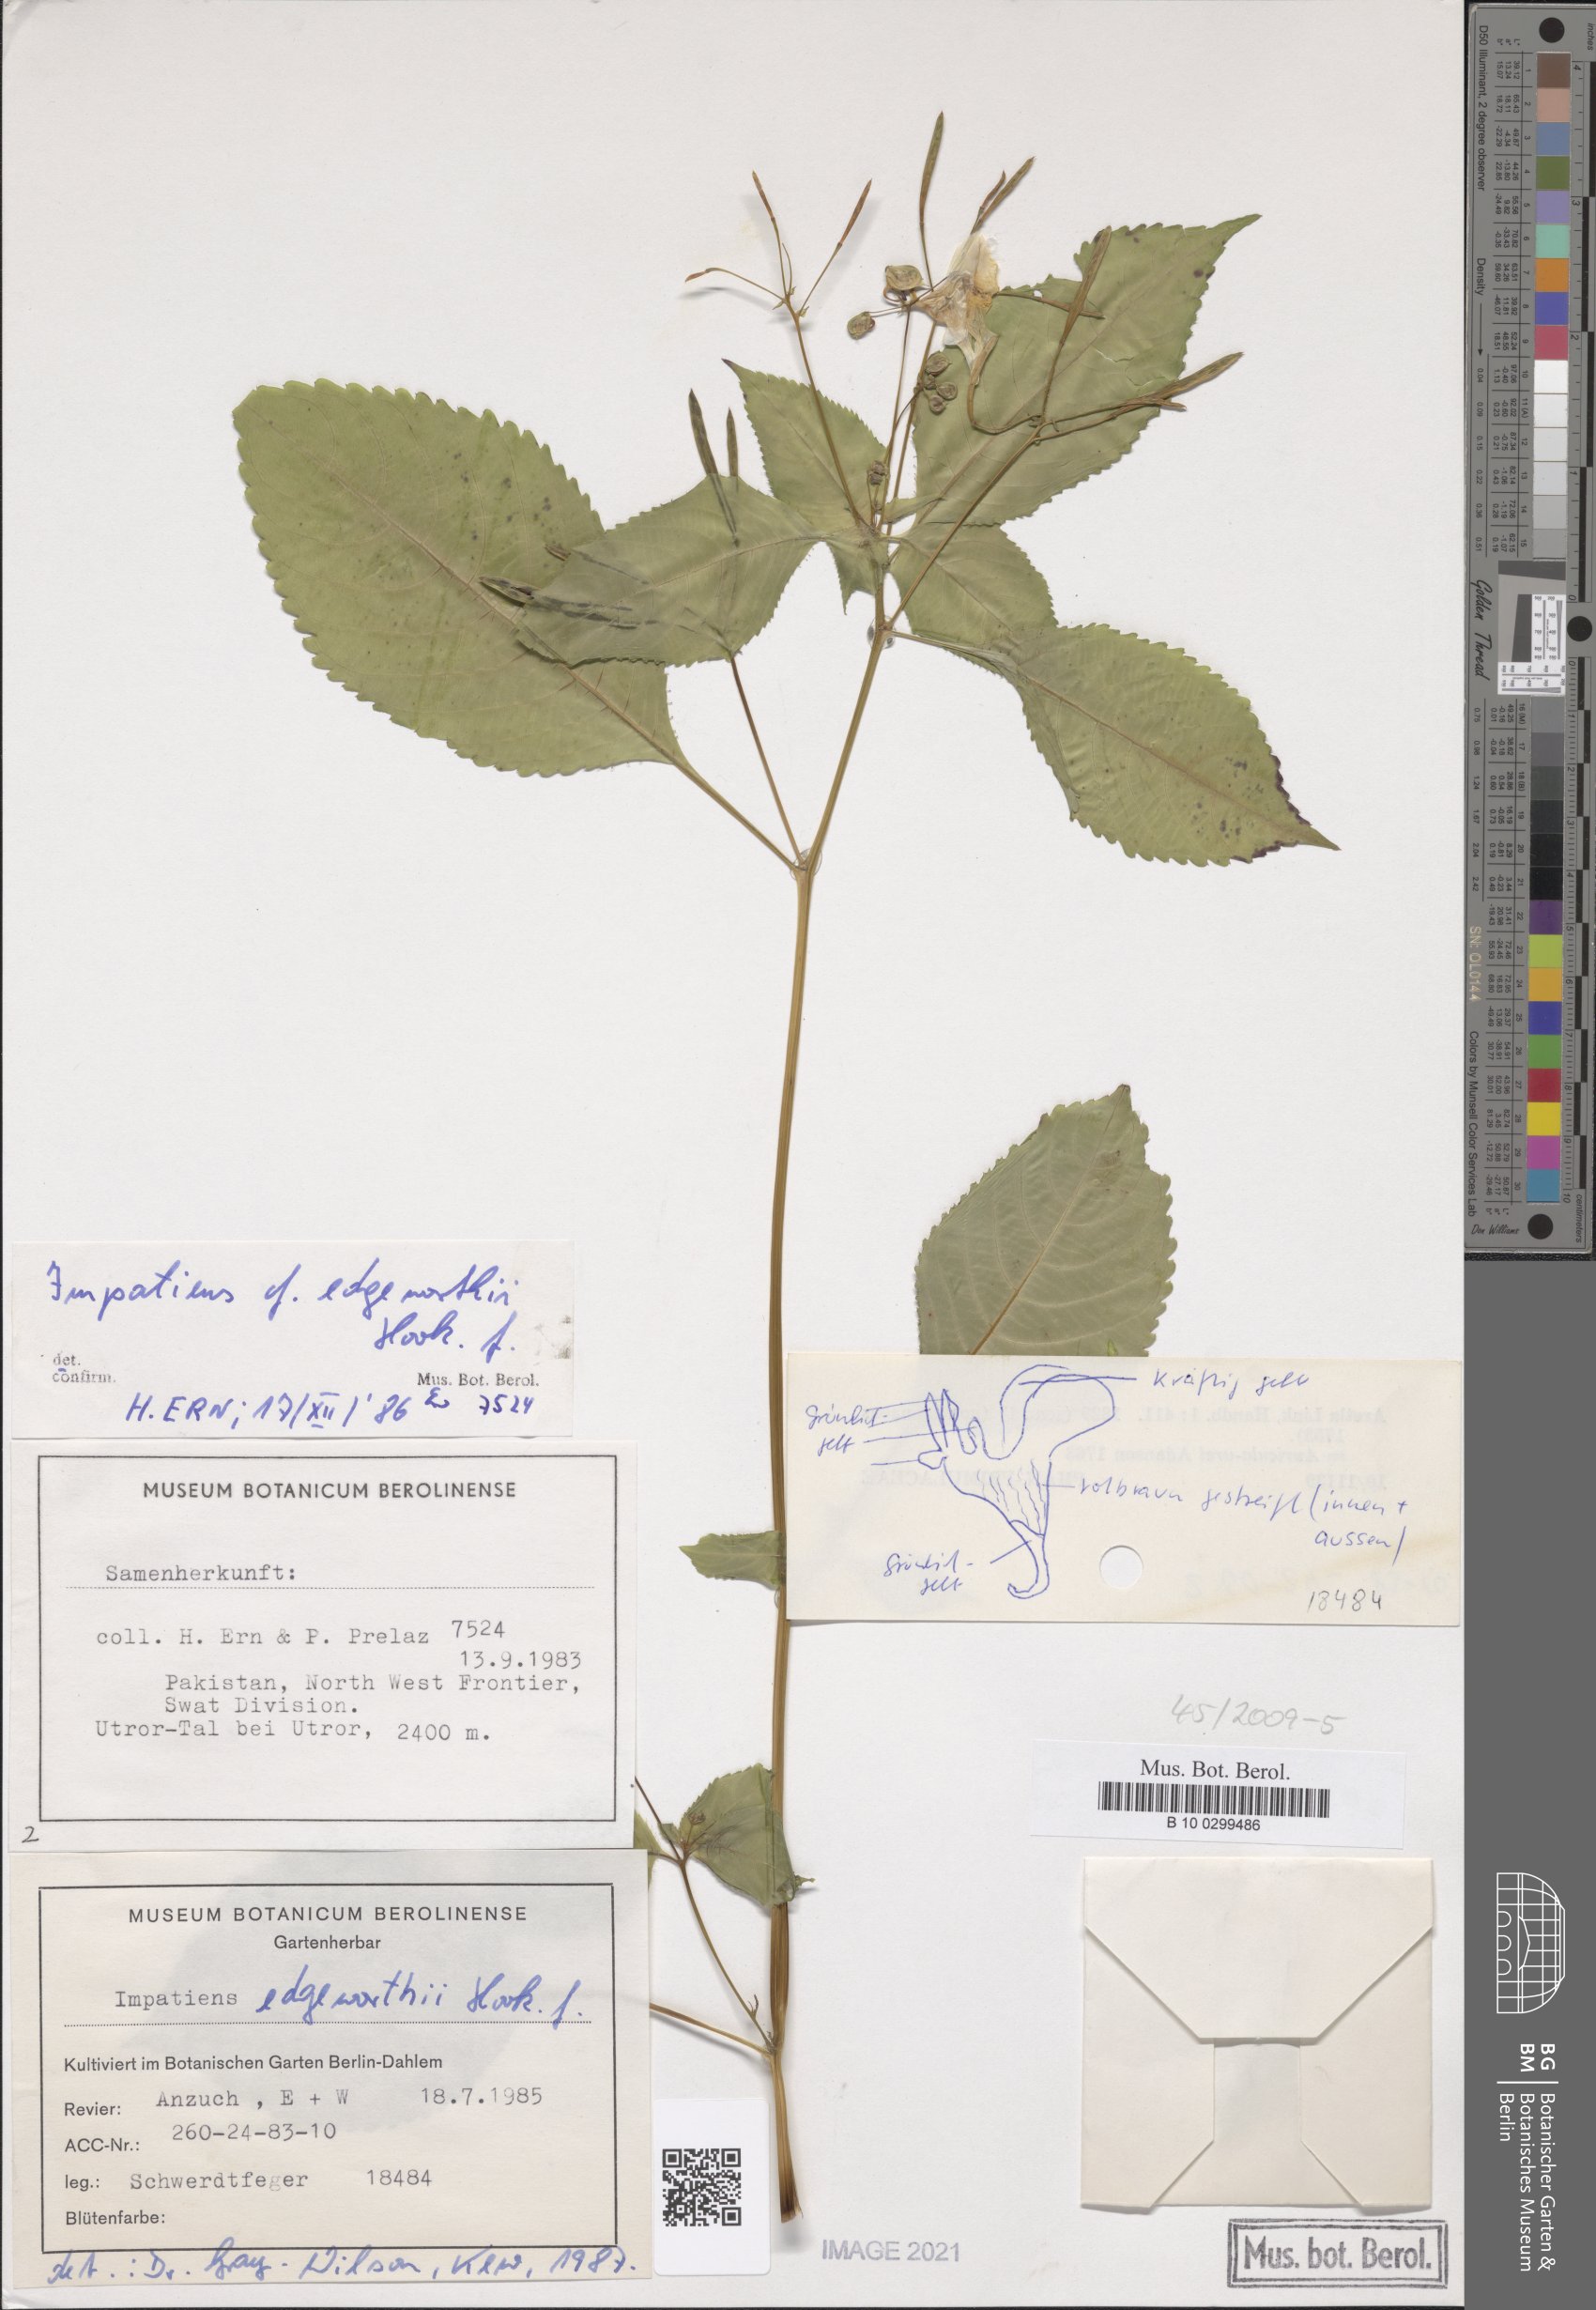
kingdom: Plantae
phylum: Tracheophyta
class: Magnoliopsida
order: Ericales
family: Balsaminaceae
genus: Impatiens
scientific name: Impatiens edgeworthii
